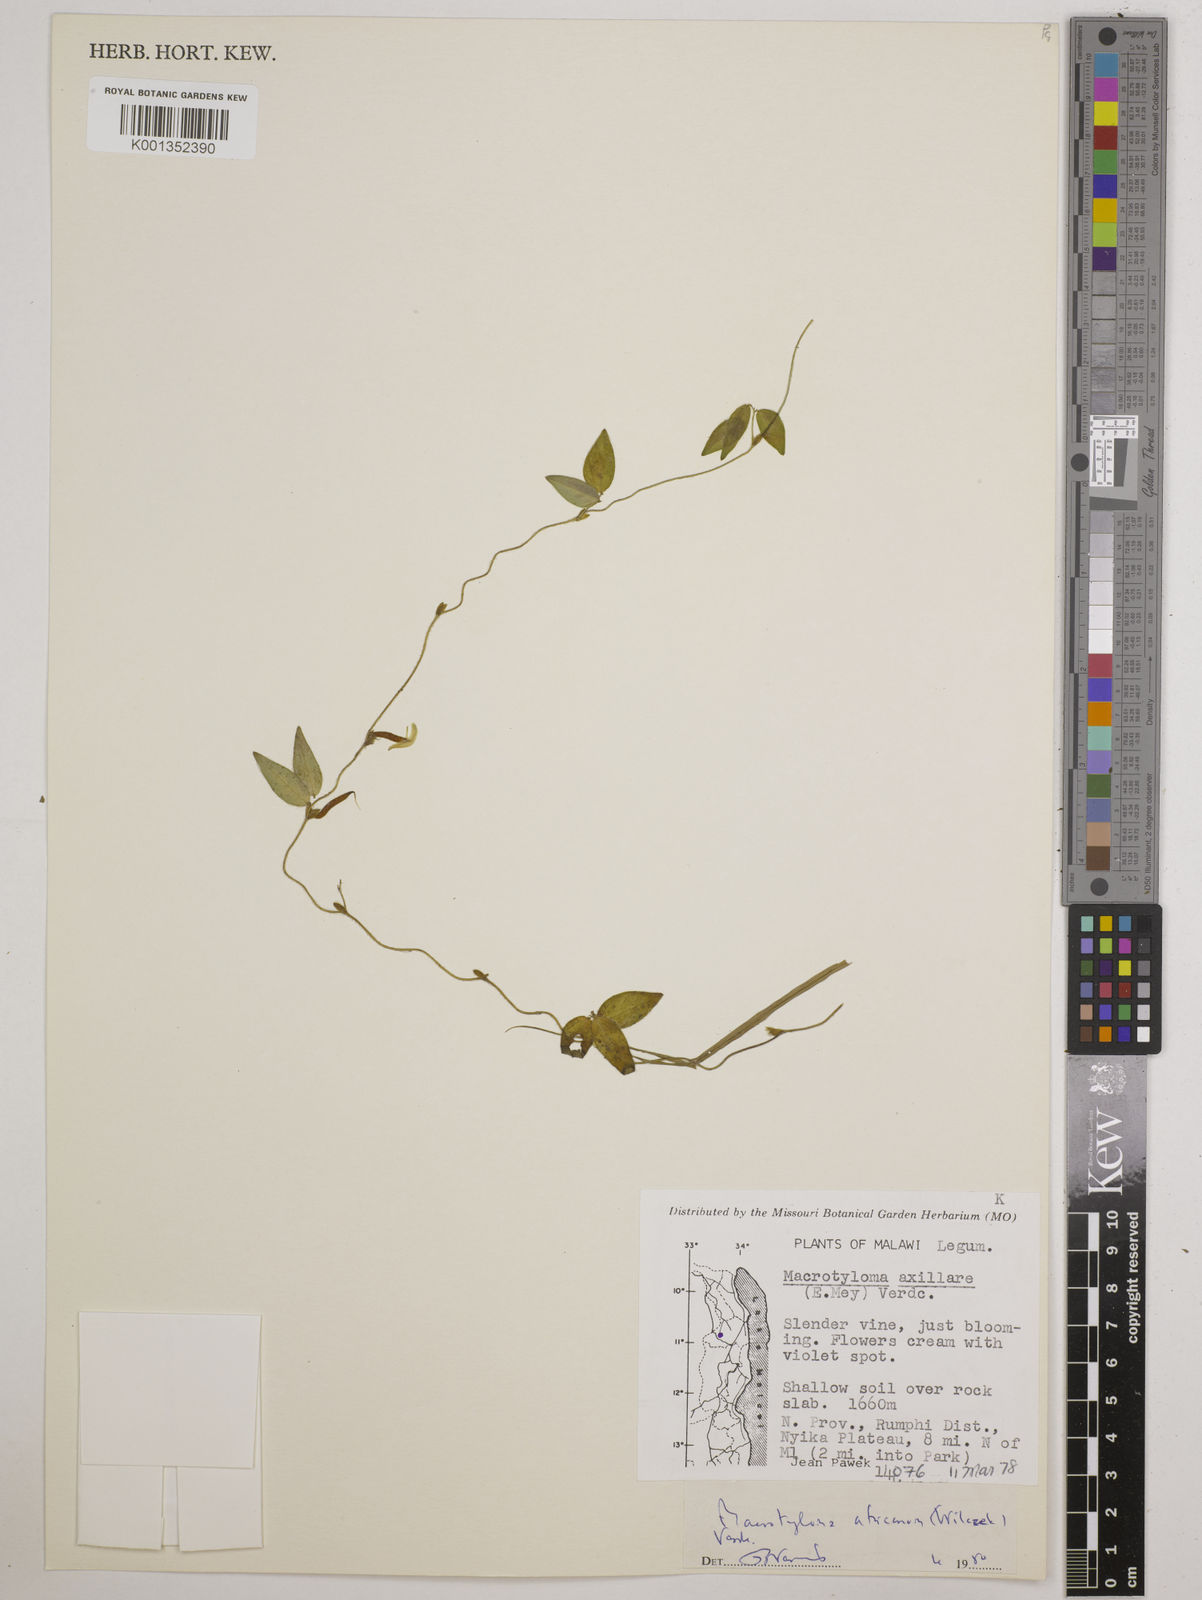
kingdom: Plantae
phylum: Tracheophyta
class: Magnoliopsida
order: Fabales
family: Fabaceae
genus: Macrotyloma
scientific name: Macrotyloma africanum
